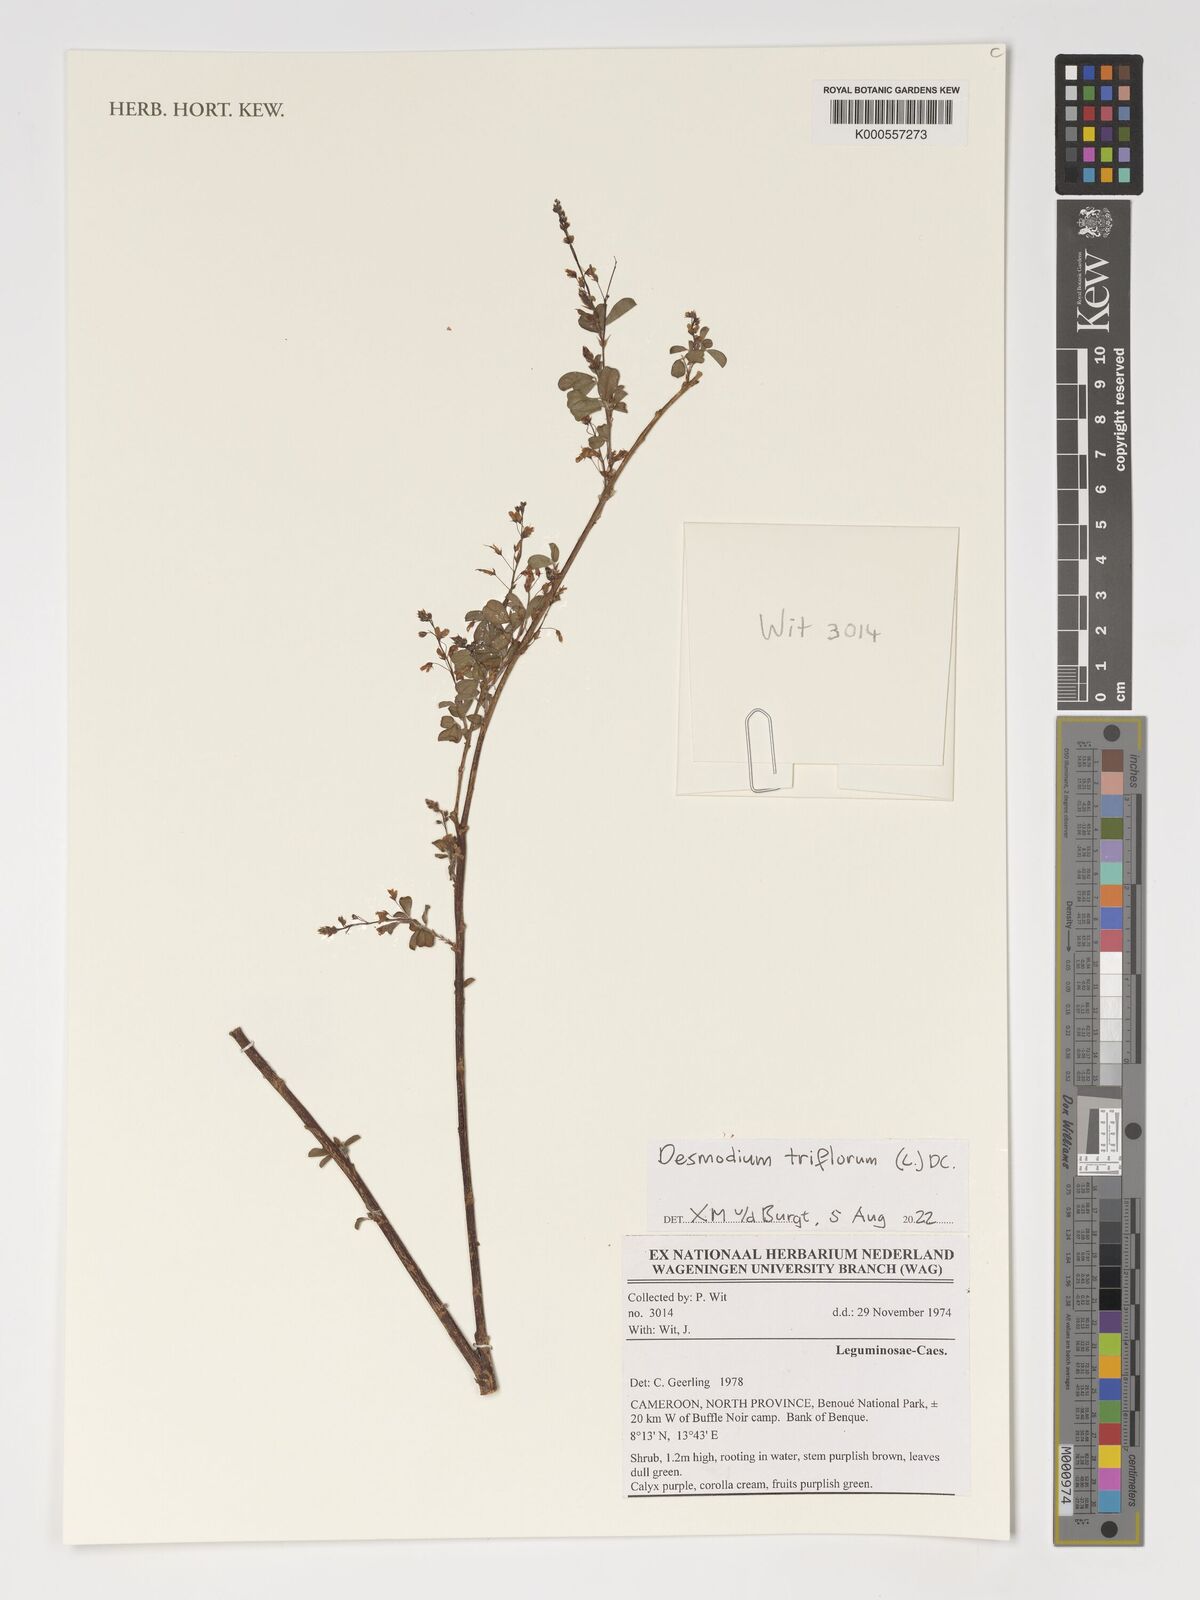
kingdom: Plantae
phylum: Tracheophyta
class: Magnoliopsida
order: Fabales
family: Fabaceae
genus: Grona
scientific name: Grona triflora
